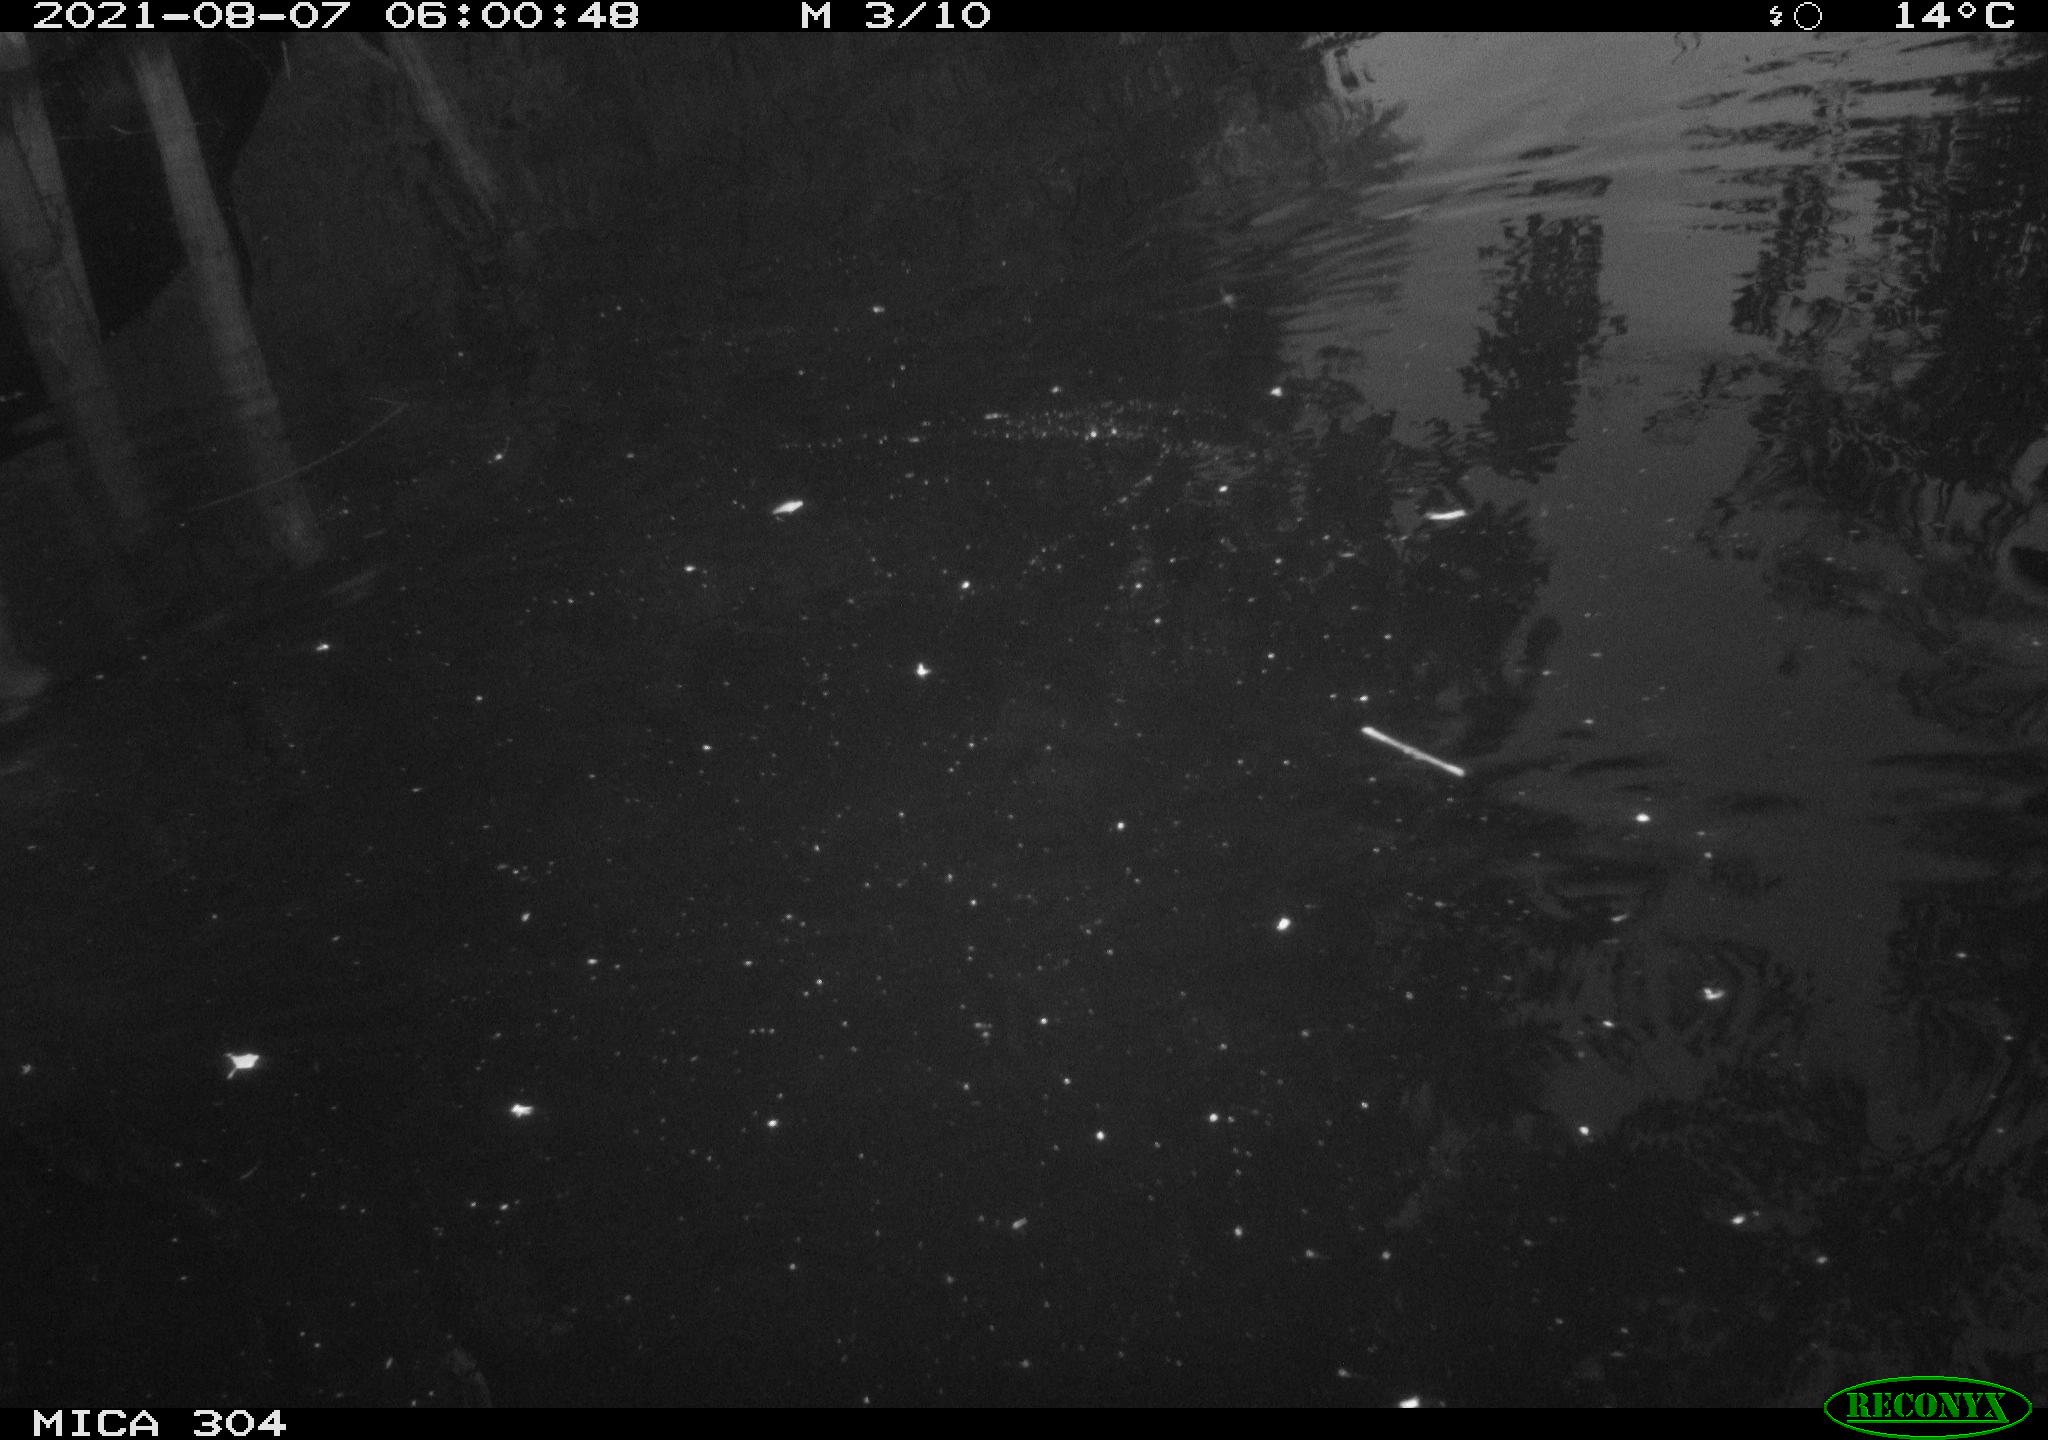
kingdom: Animalia
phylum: Chordata
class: Mammalia
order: Rodentia
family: Muridae
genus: Rattus
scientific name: Rattus norvegicus
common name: Brown rat
